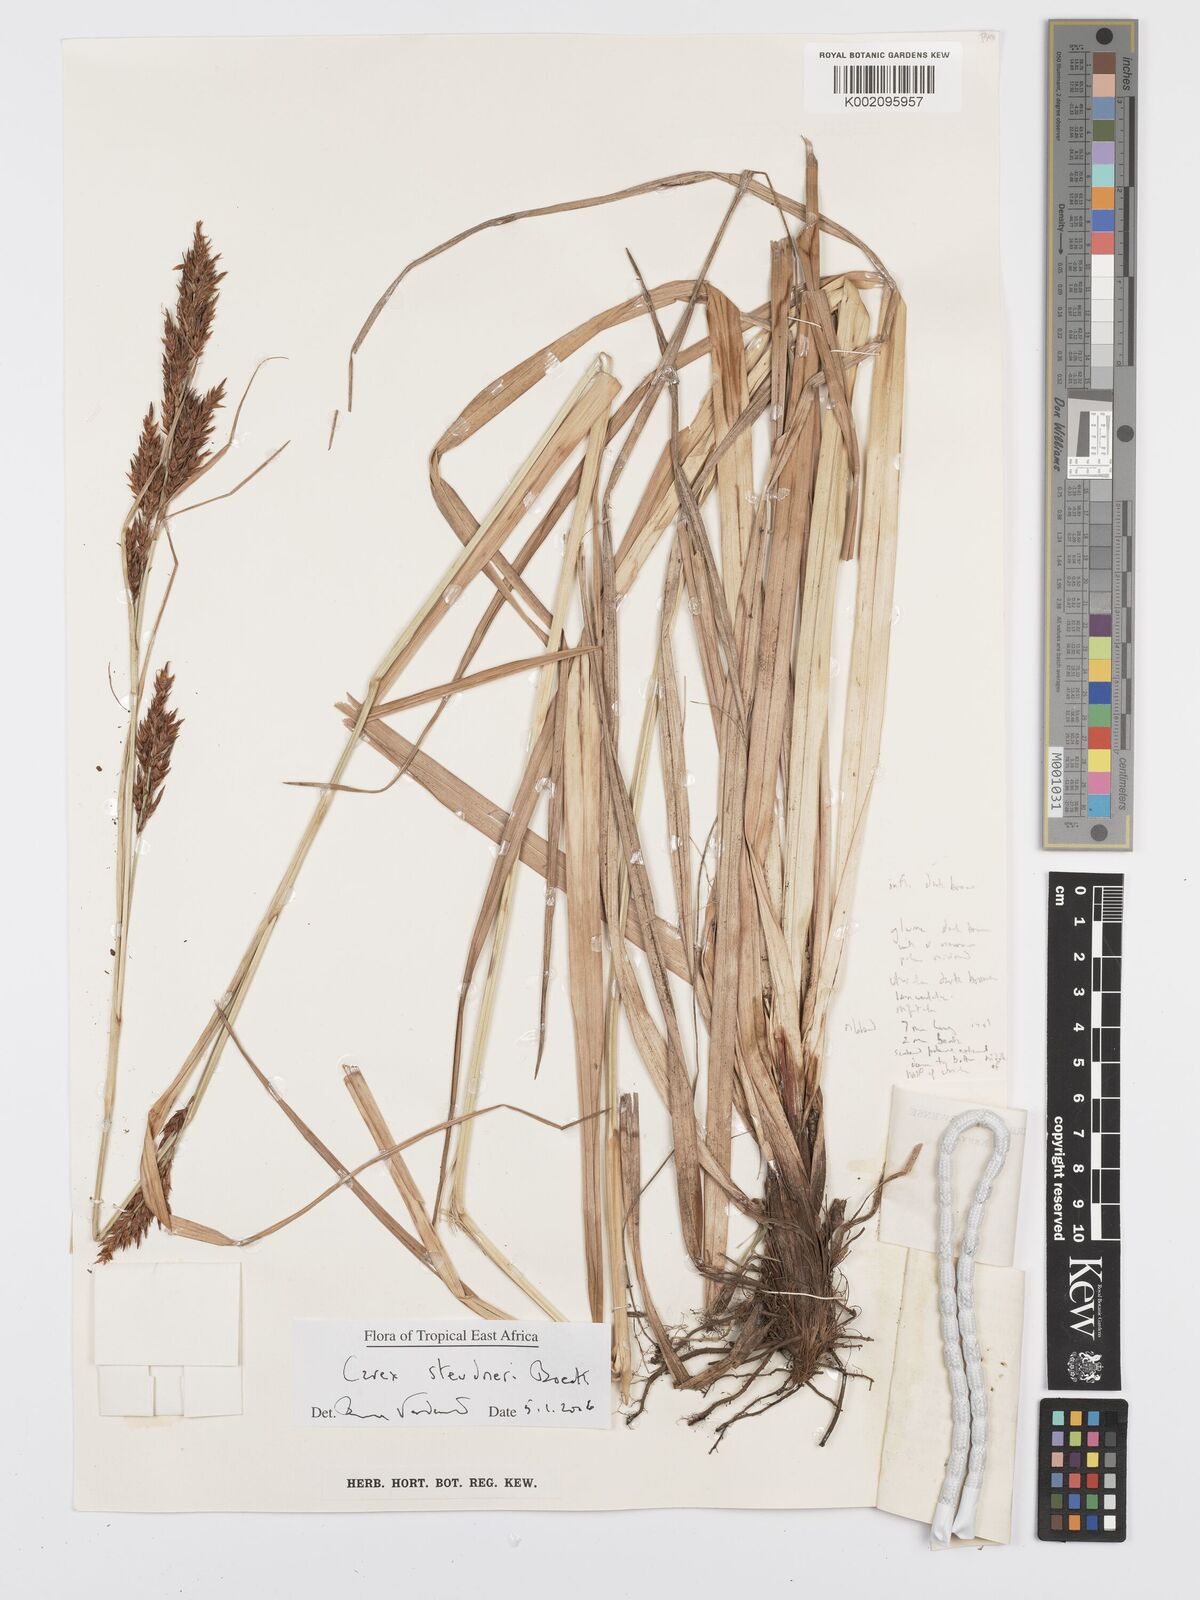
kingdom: Plantae
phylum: Tracheophyta
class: Liliopsida
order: Poales
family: Cyperaceae
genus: Carex
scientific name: Carex steudneri
